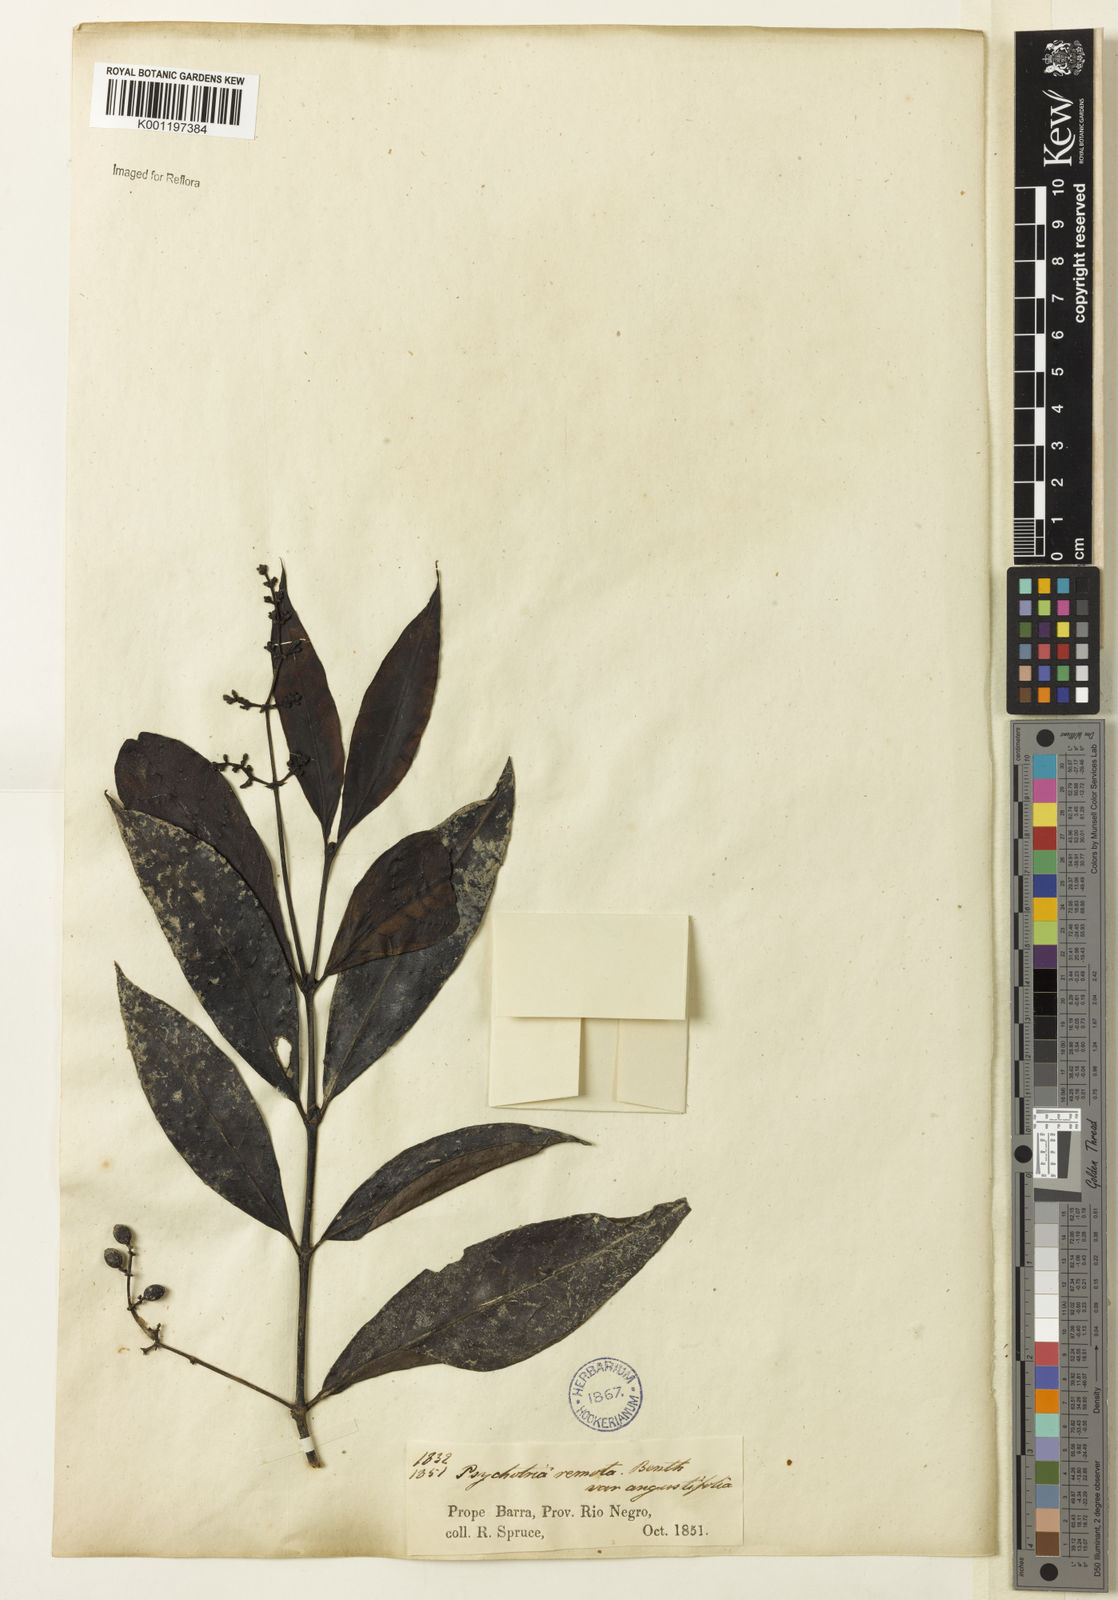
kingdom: Plantae
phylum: Tracheophyta
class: Magnoliopsida
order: Gentianales
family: Rubiaceae
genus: Psychotria
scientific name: Psychotria remota
